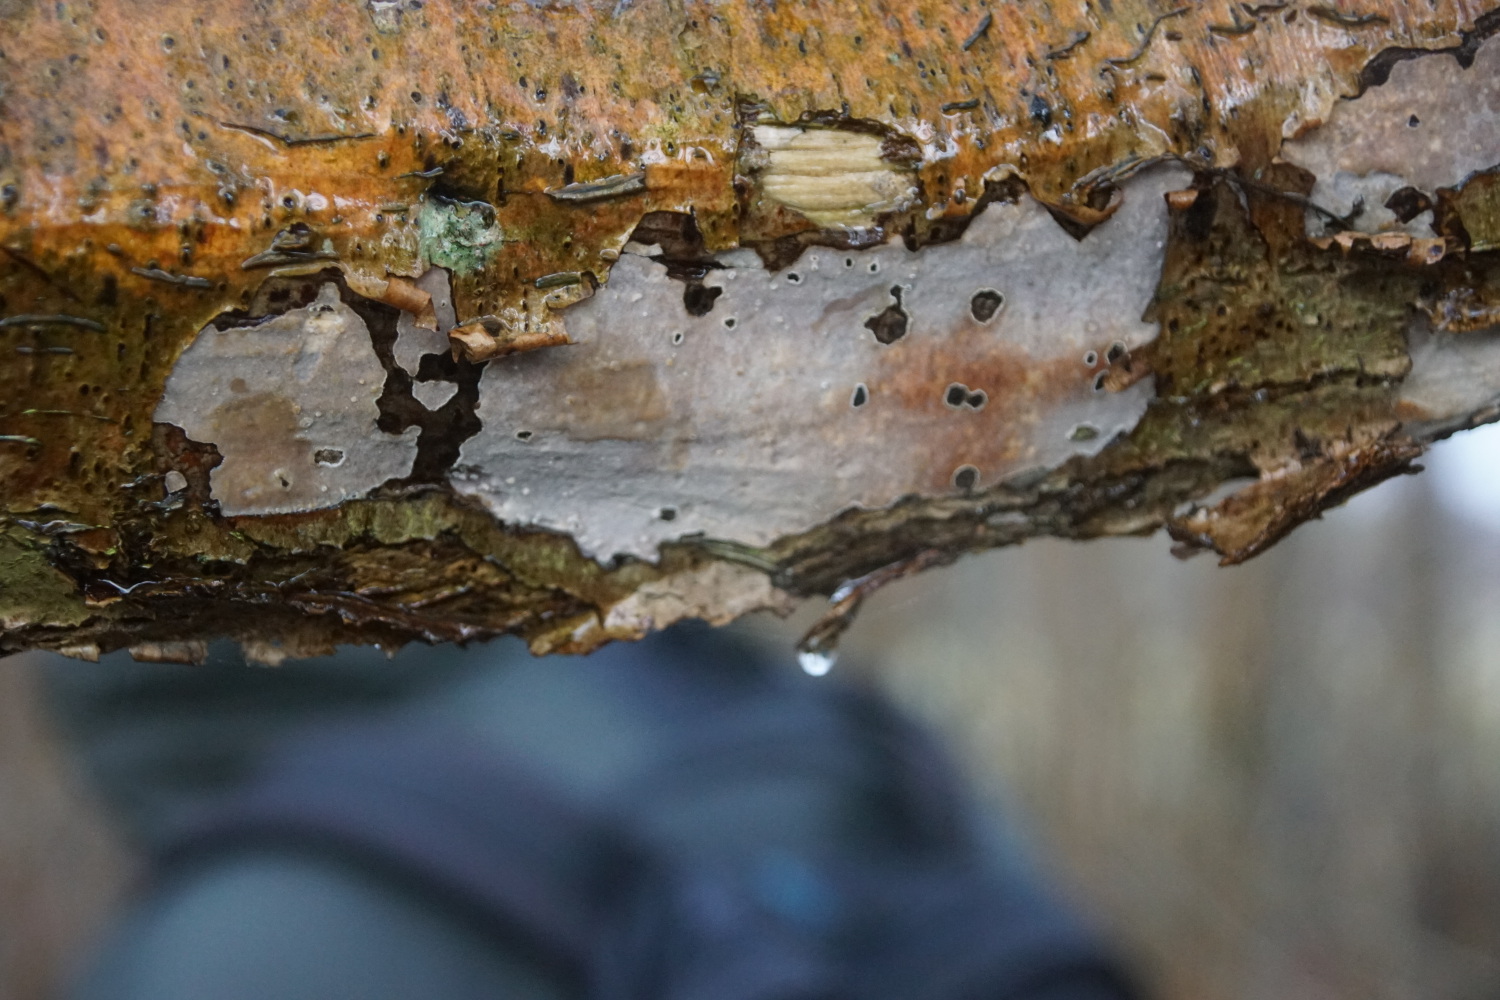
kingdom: Fungi
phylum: Basidiomycota
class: Agaricomycetes
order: Corticiales
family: Vuilleminiaceae
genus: Vuilleminia
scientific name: Vuilleminia coryli
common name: hassel-barksprænger
